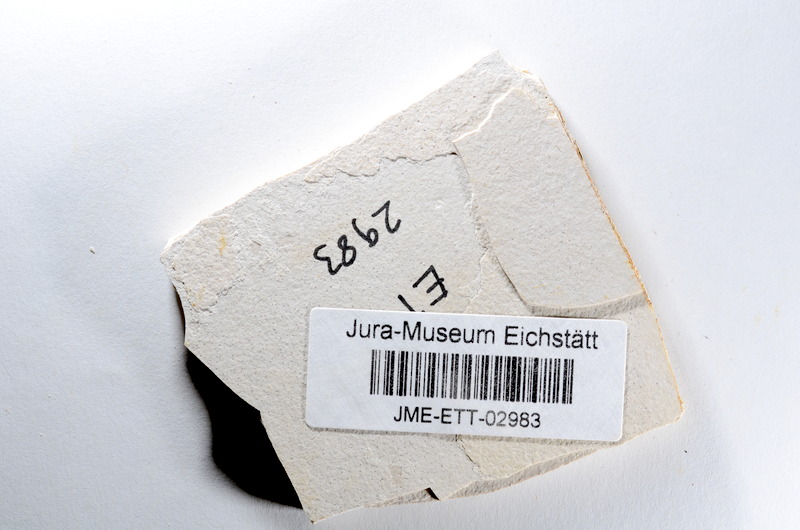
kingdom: Animalia
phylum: Chordata
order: Salmoniformes
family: Orthogonikleithridae
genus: Orthogonikleithrus
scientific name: Orthogonikleithrus hoelli
